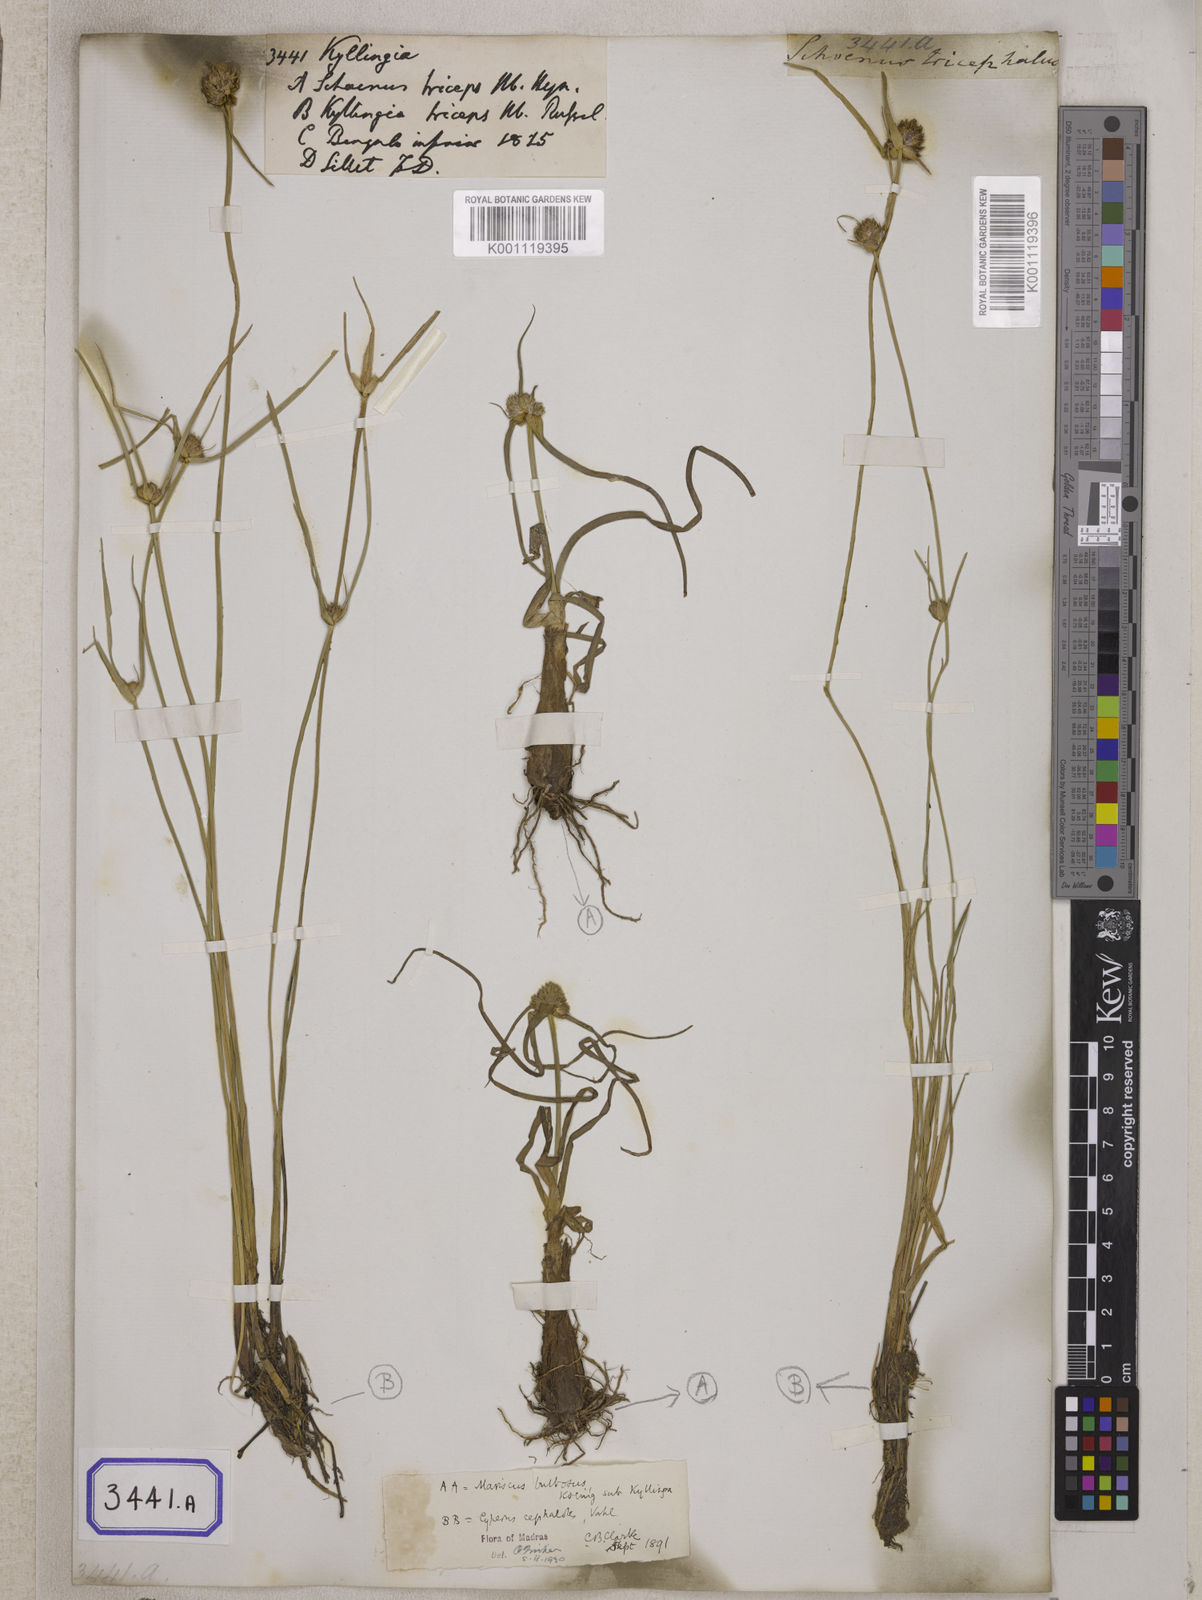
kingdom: Plantae
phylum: Tracheophyta
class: Liliopsida
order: Poales
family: Cyperaceae
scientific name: Cyperaceae
